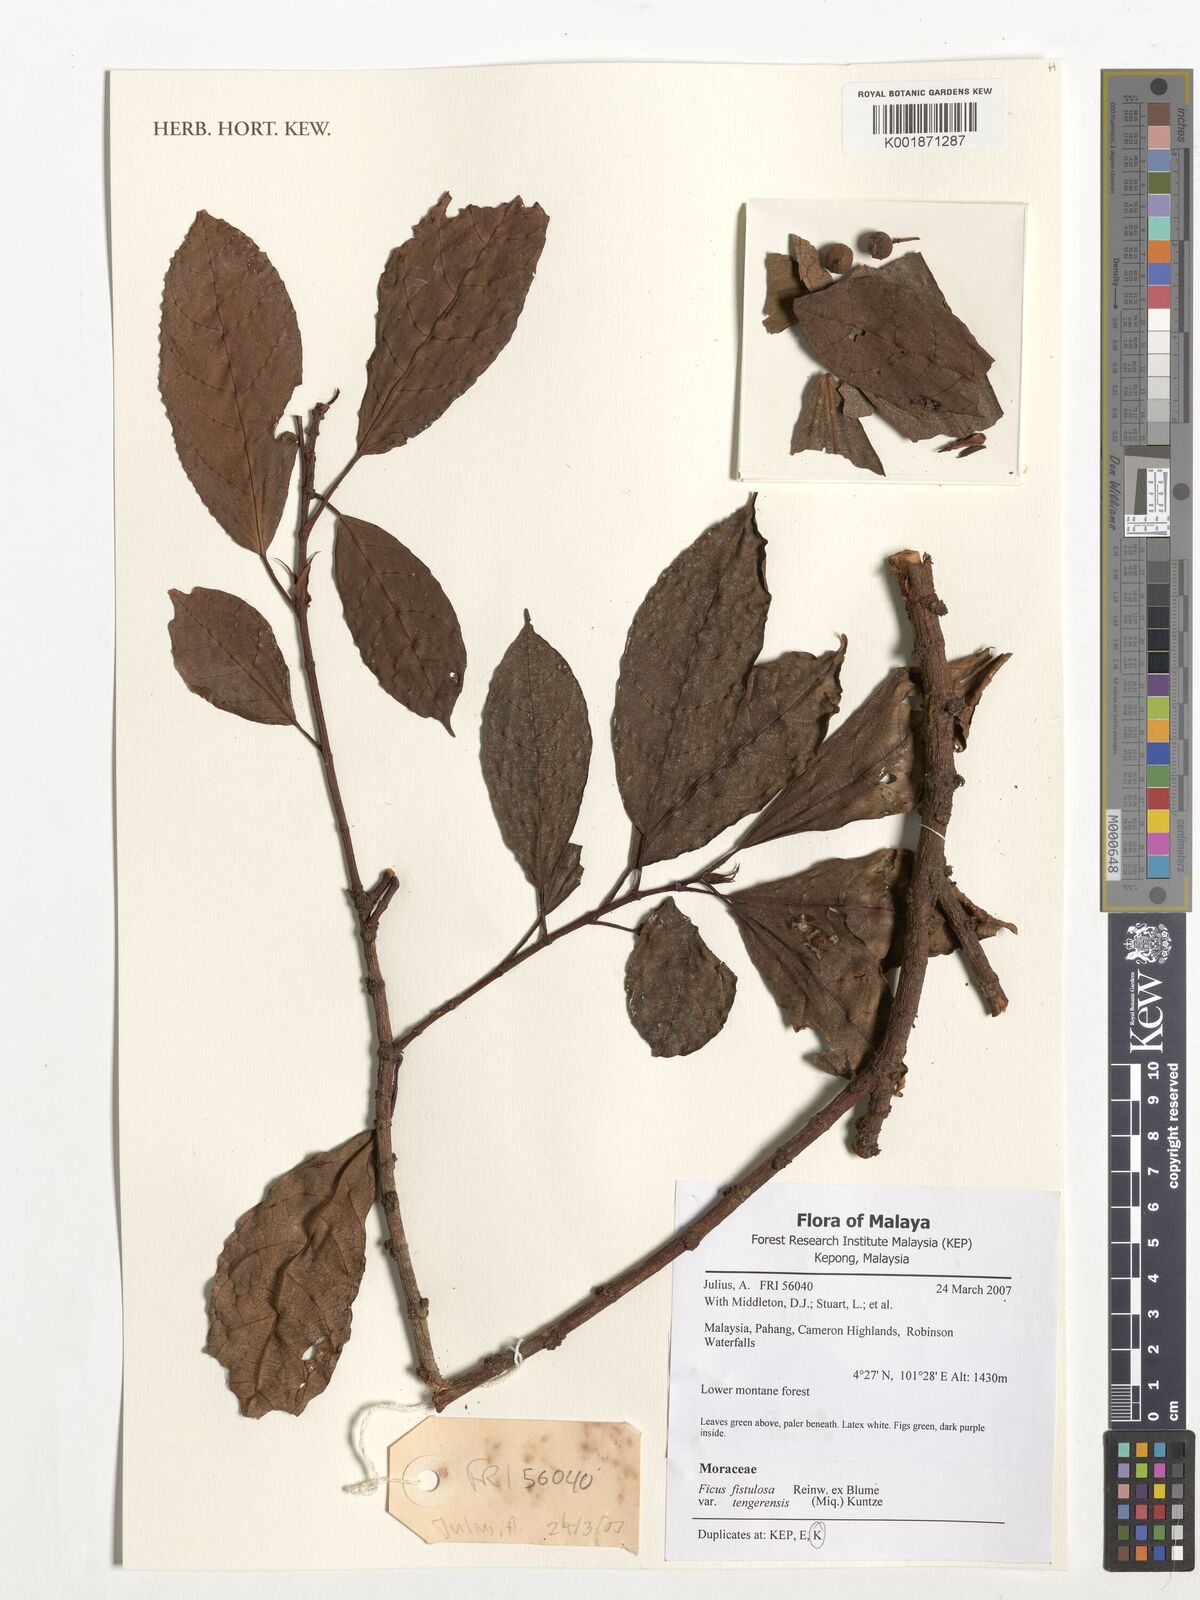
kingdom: Plantae
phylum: Tracheophyta
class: Magnoliopsida
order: Rosales
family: Moraceae
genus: Ficus
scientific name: Ficus fistulosa
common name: Figs
